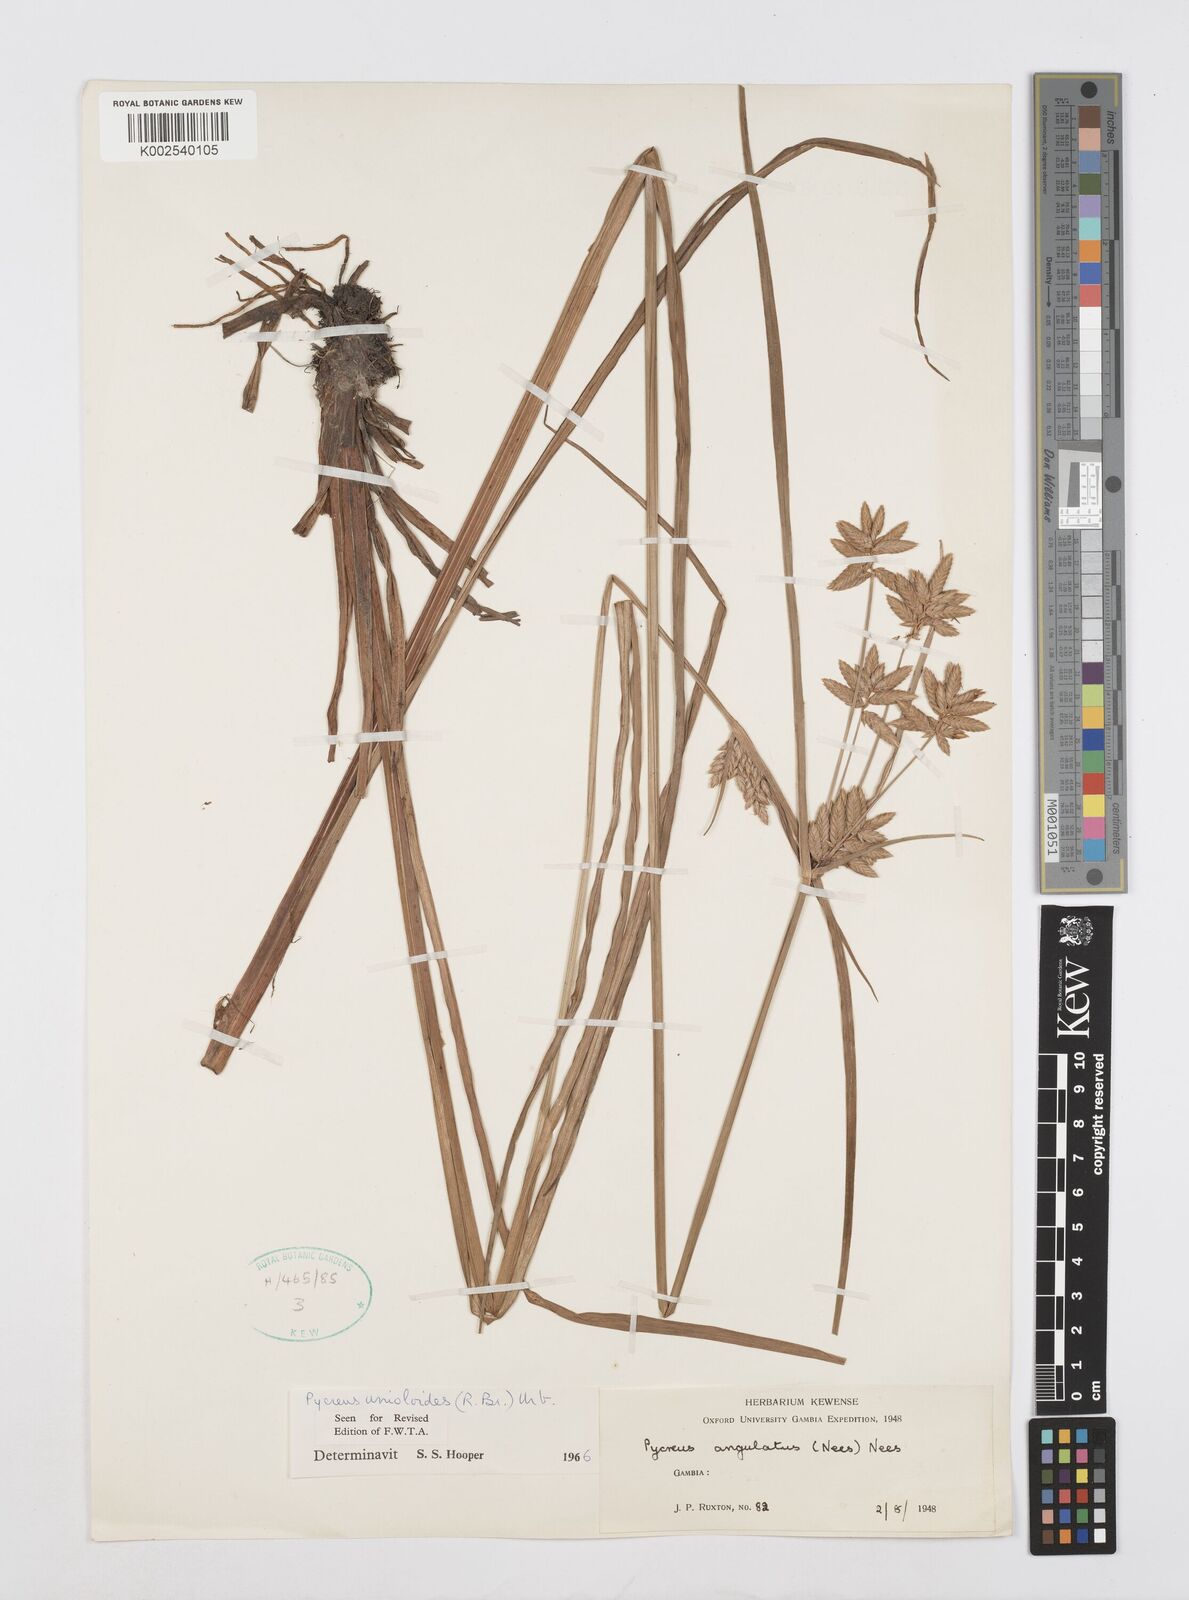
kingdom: Plantae
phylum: Tracheophyta
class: Liliopsida
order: Poales
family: Cyperaceae
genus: Cyperus
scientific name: Cyperus unioloides
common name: Uniola flatsedge
